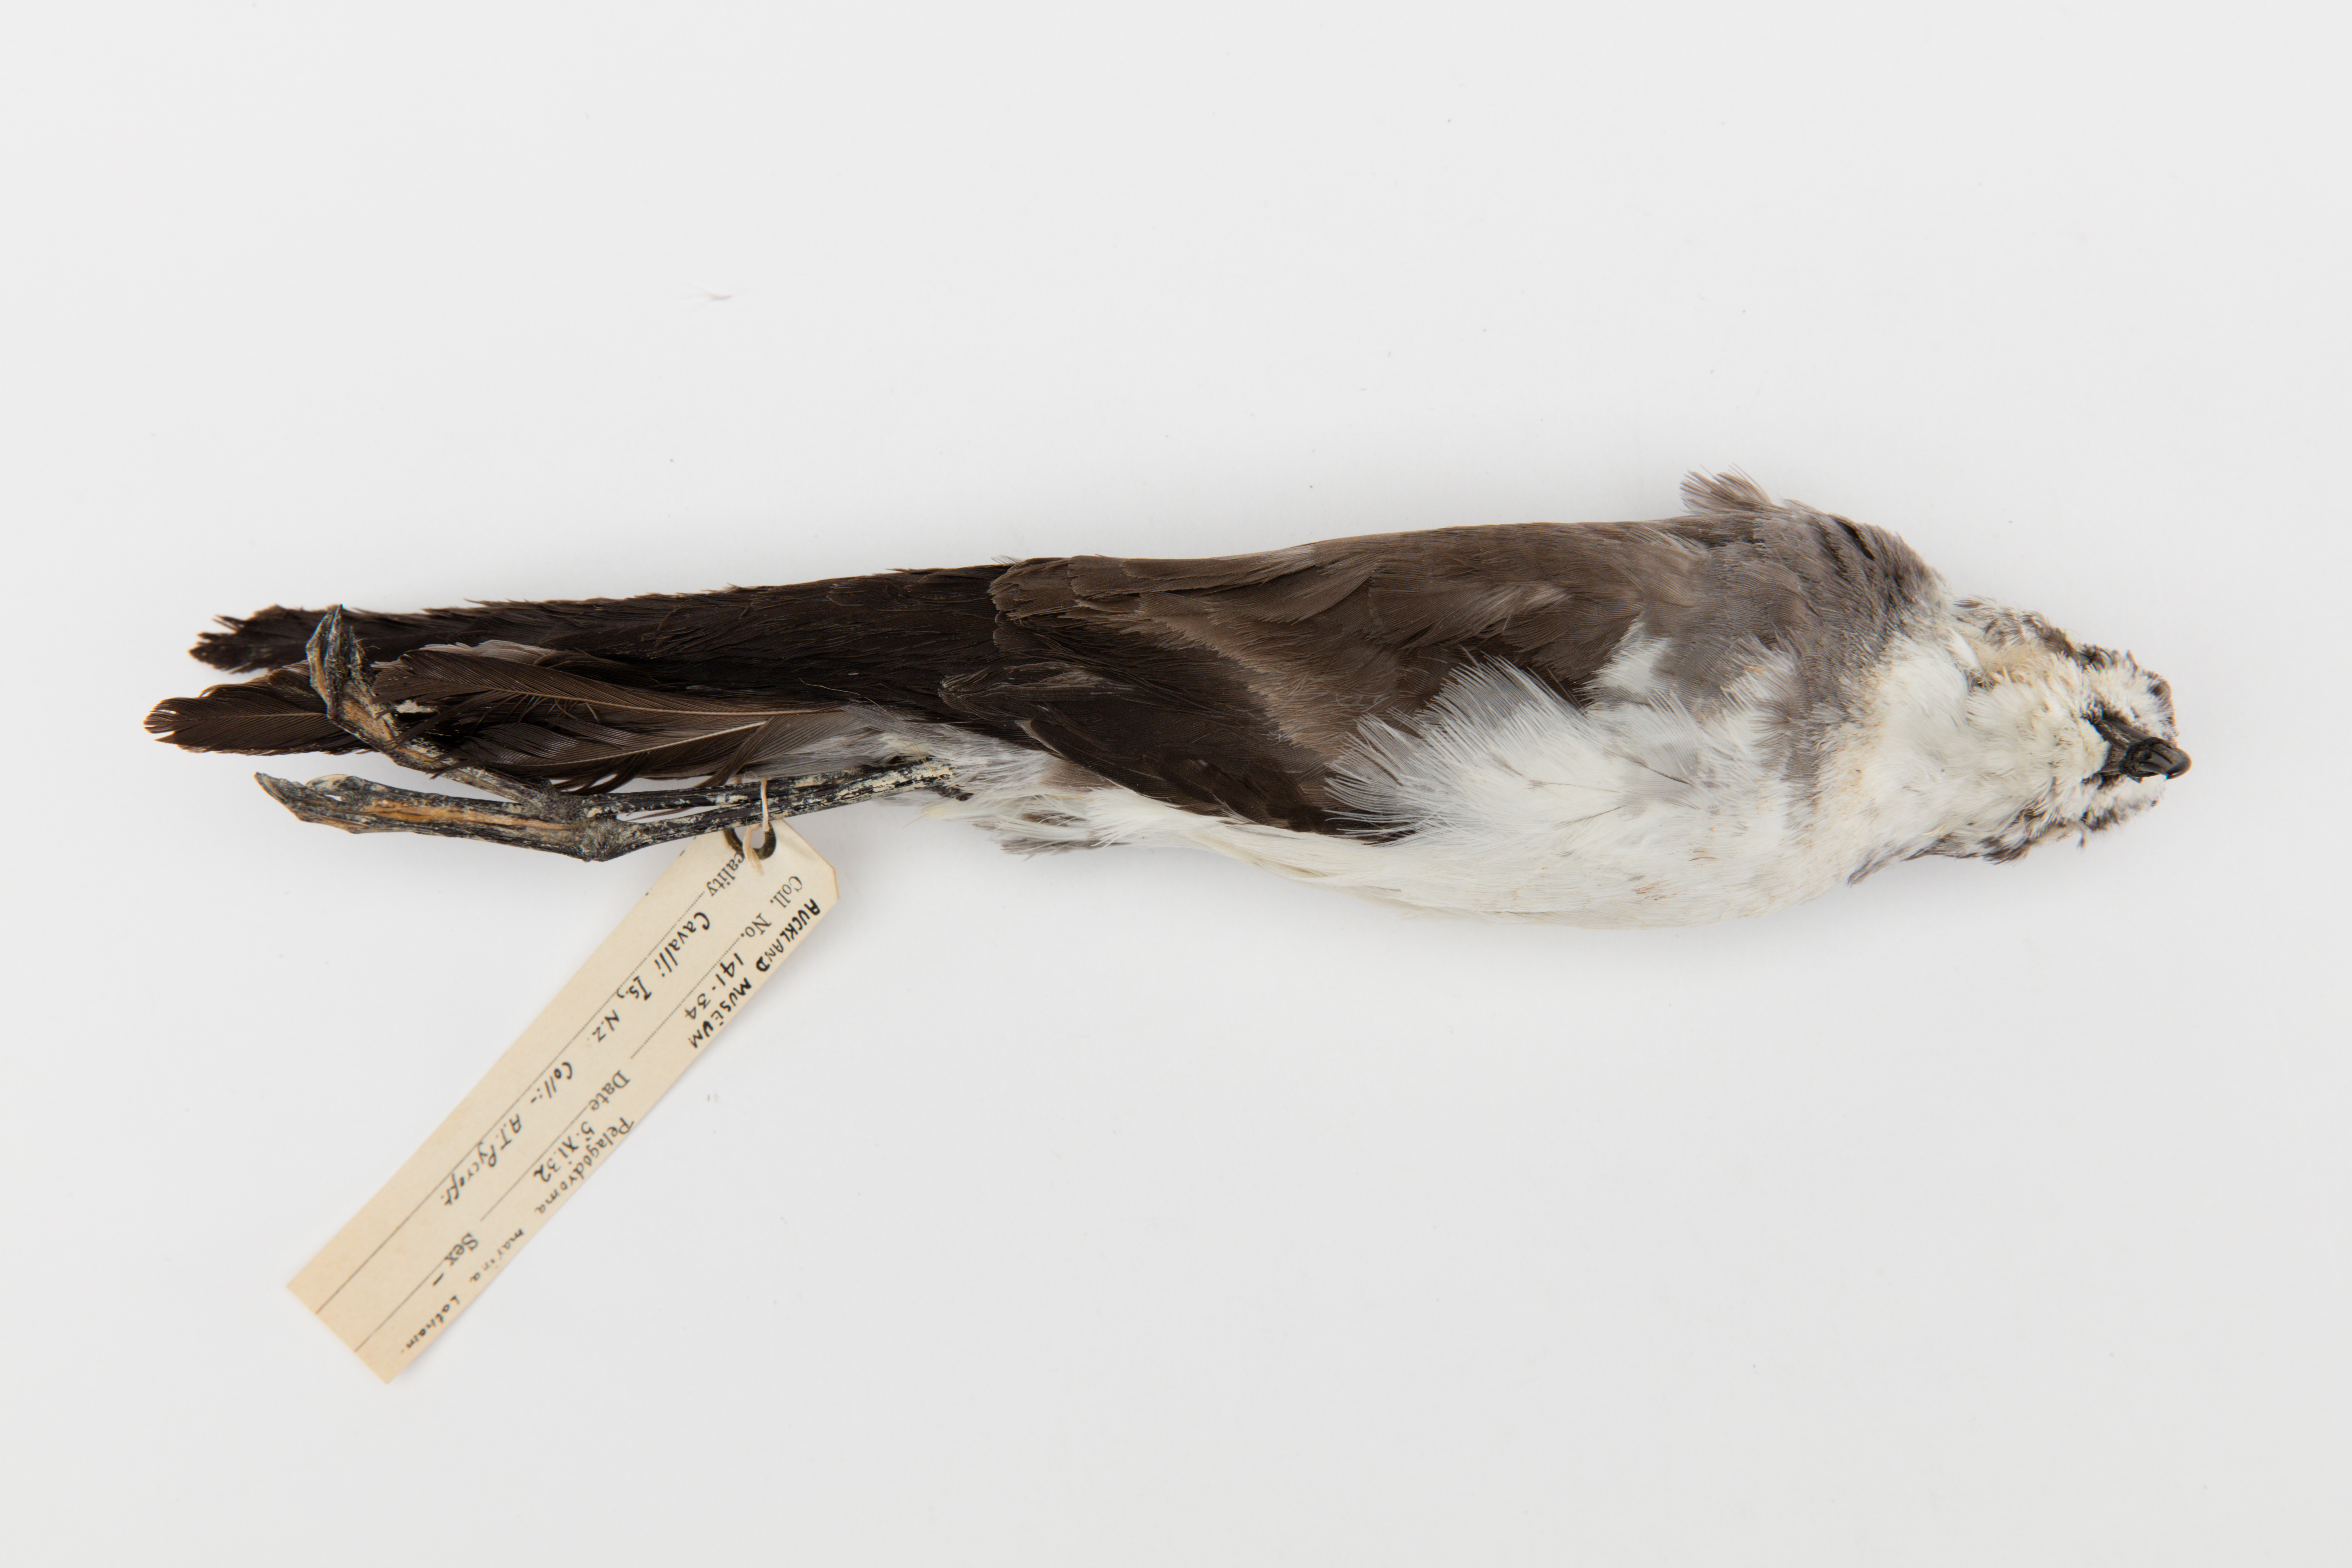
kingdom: Animalia
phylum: Chordata
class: Aves
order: Procellariiformes
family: Hydrobatidae
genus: Pelagodroma
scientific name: Pelagodroma marina
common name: White-faced storm-petrel
